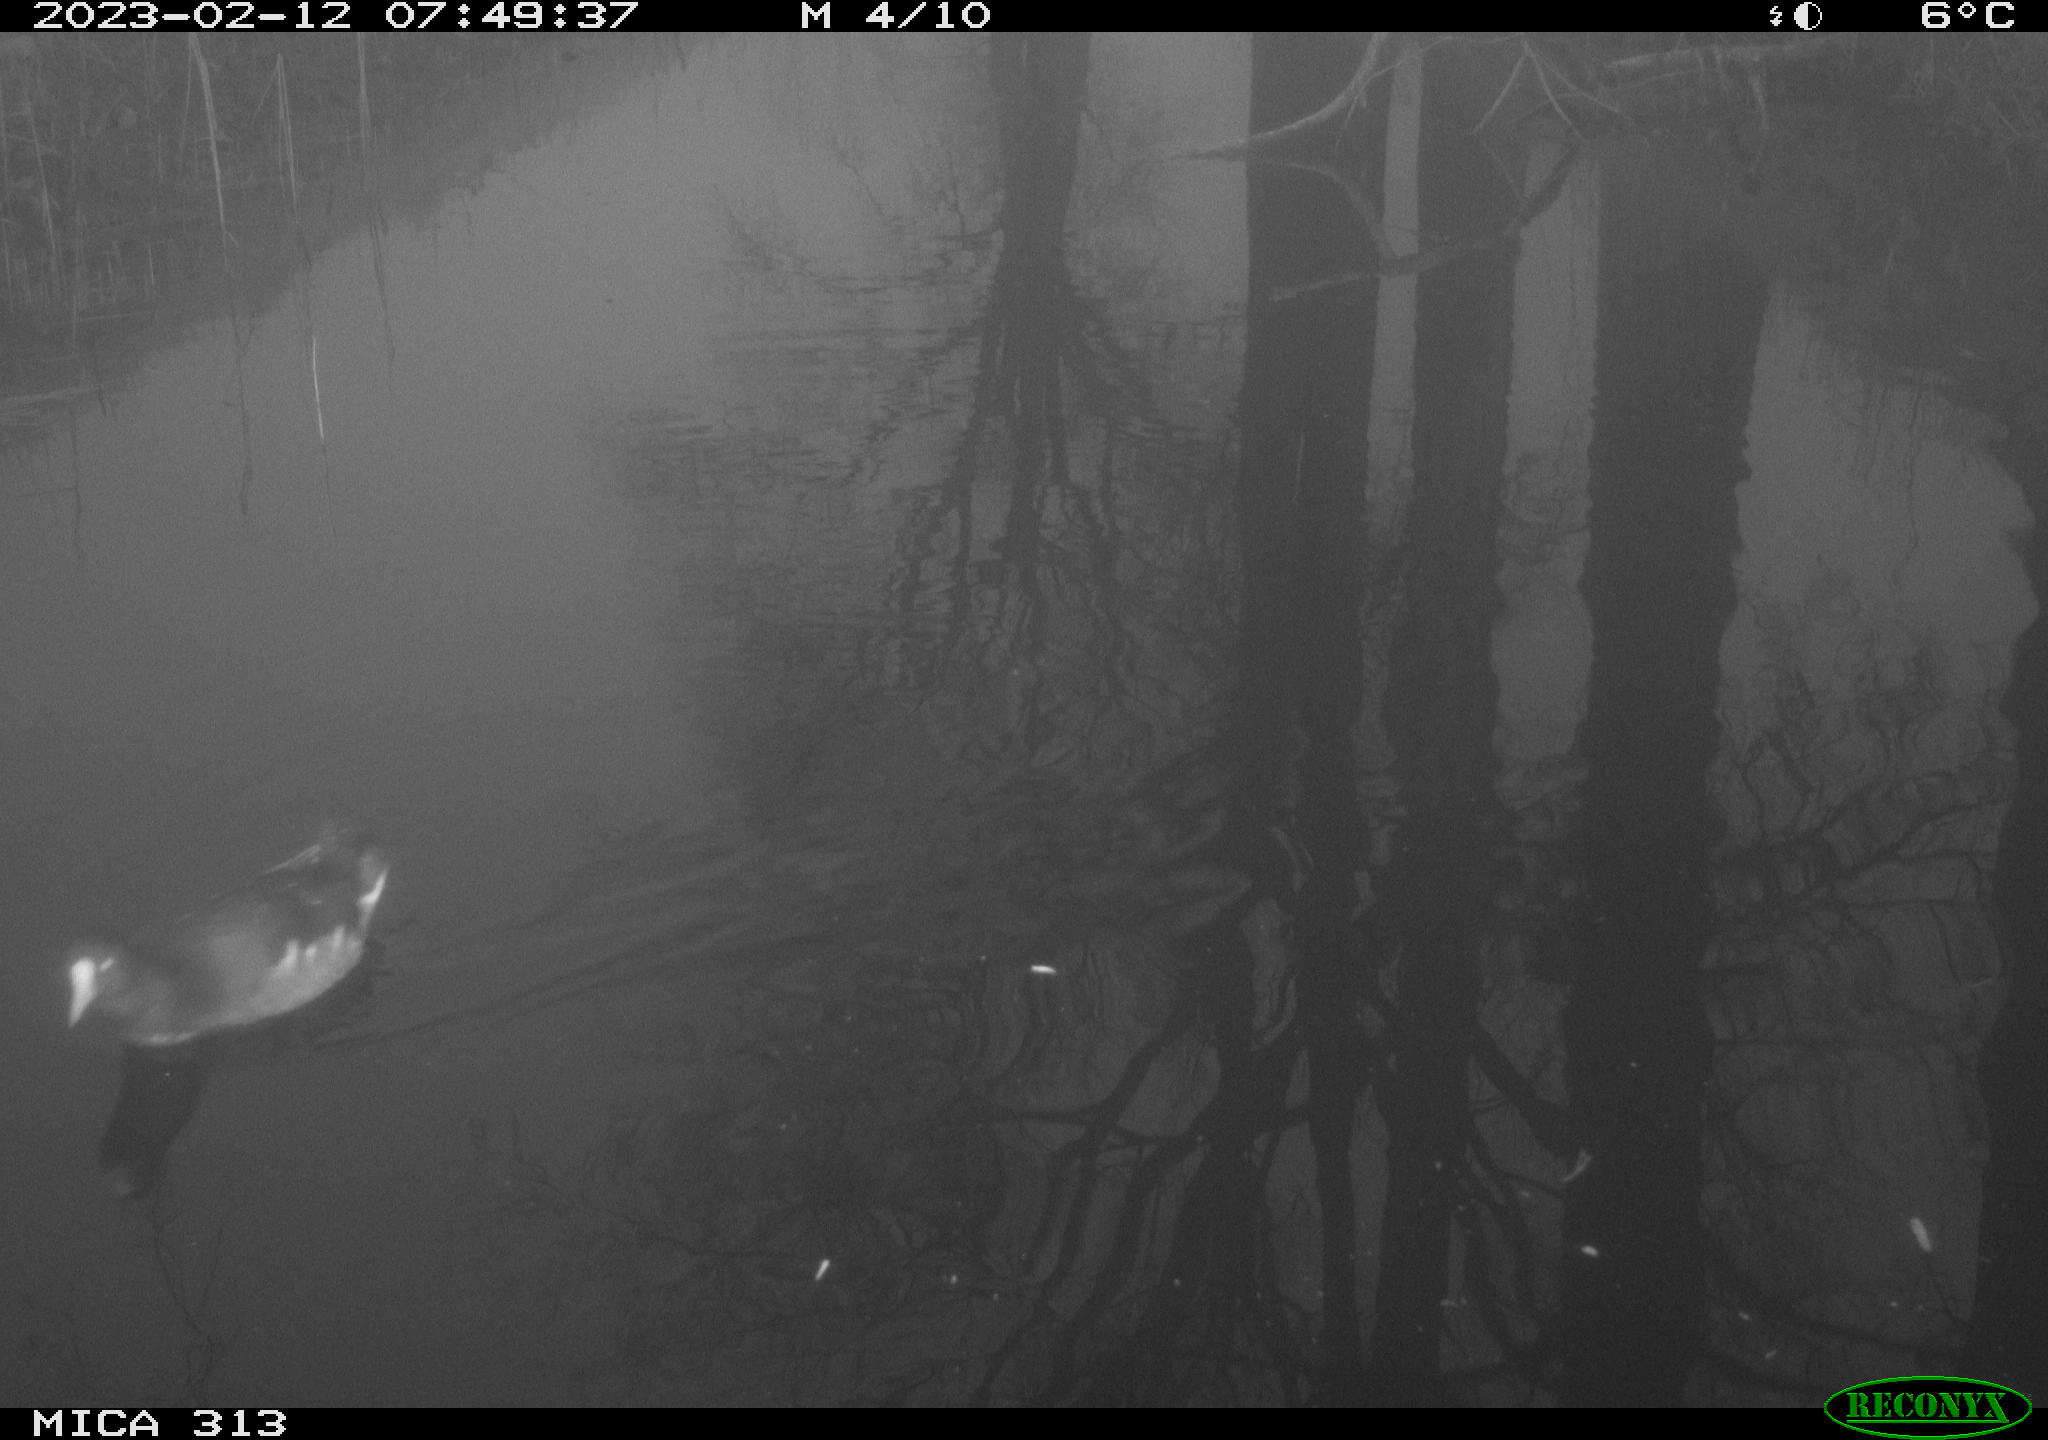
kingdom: Animalia
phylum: Chordata
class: Aves
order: Gruiformes
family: Rallidae
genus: Gallinula
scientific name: Gallinula chloropus
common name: Common moorhen
